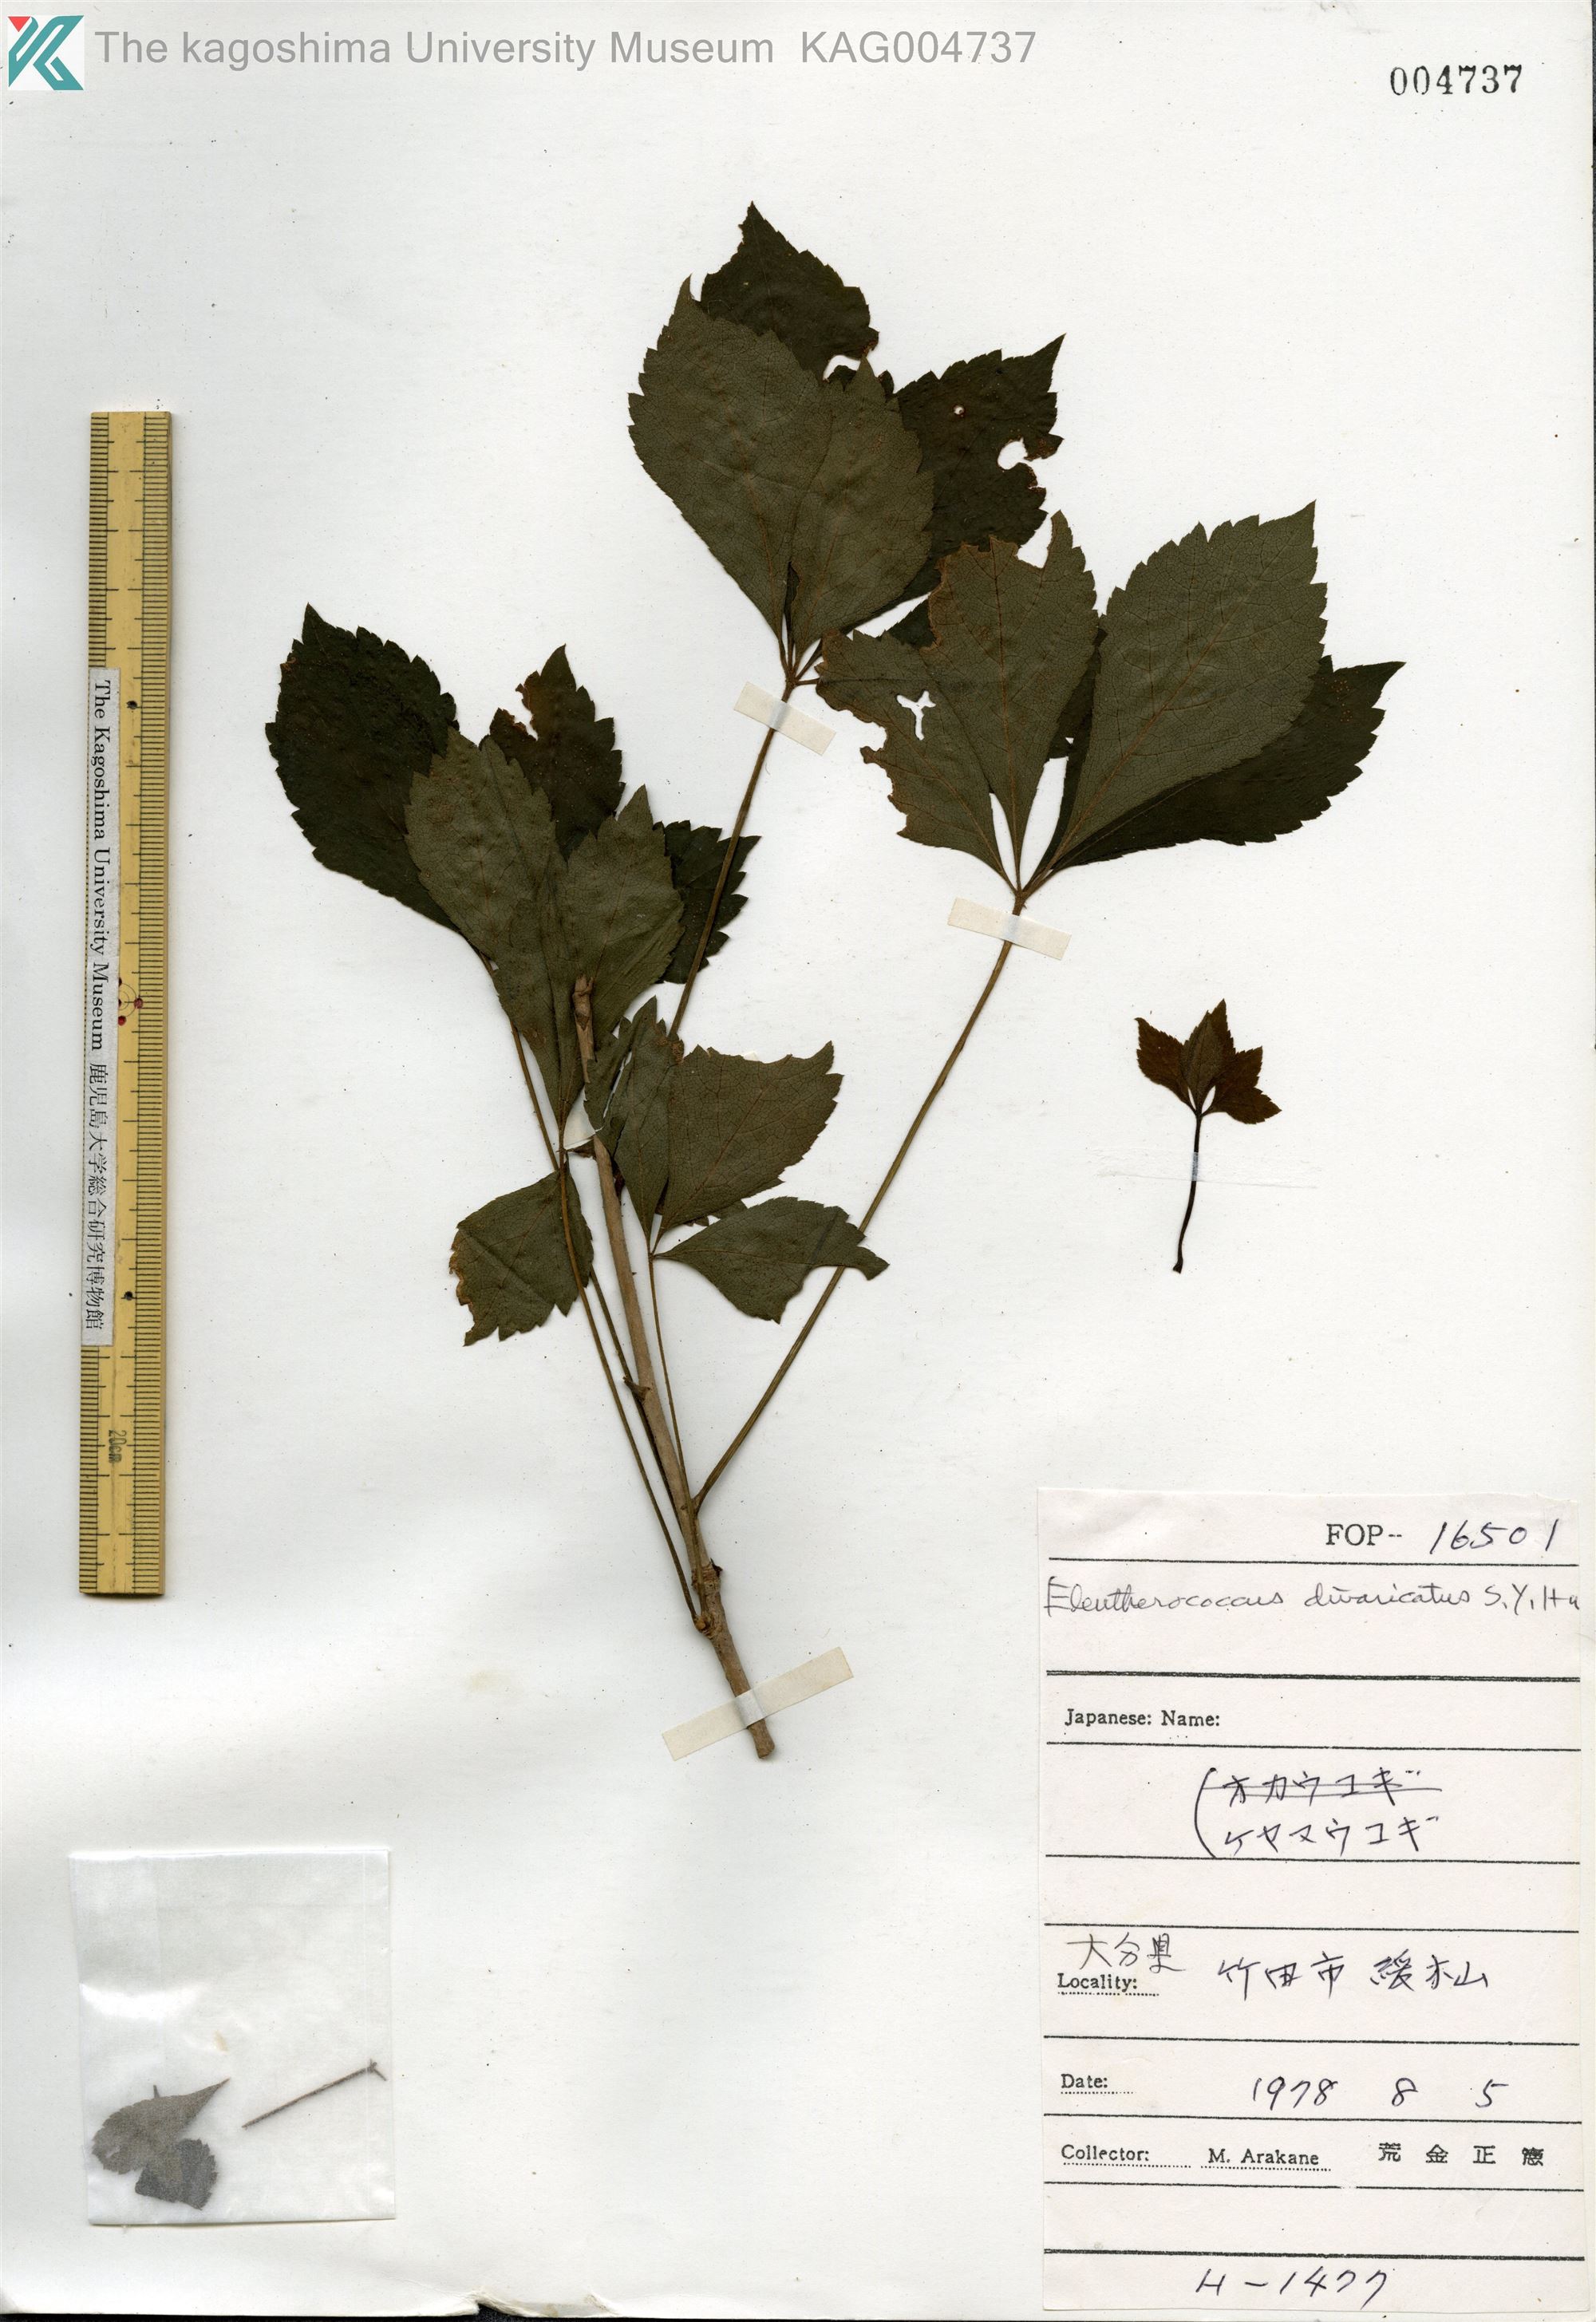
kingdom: Plantae
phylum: Tracheophyta
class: Magnoliopsida
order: Apiales
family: Araliaceae
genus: Eleutherococcus
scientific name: Eleutherococcus divaricatus
